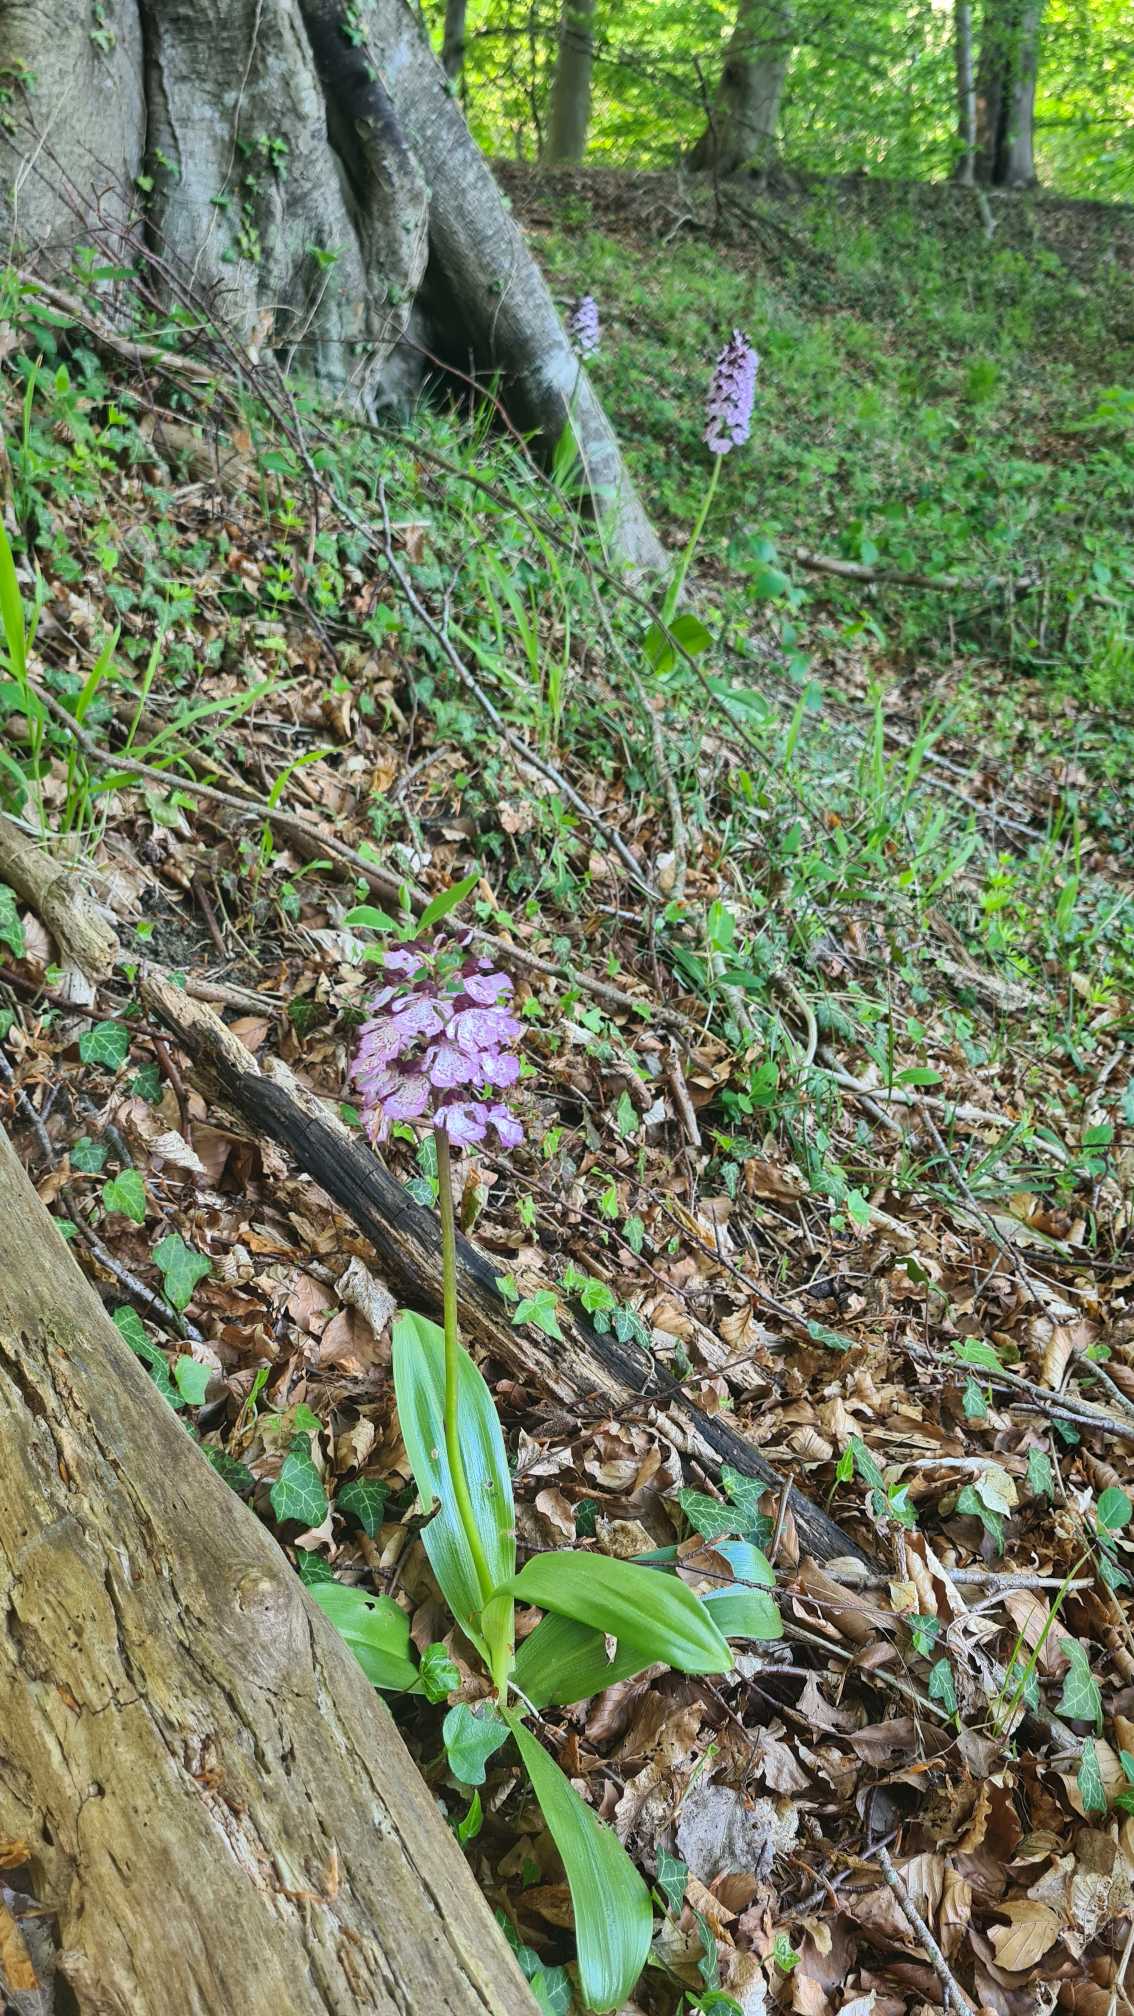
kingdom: Plantae
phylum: Tracheophyta
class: Liliopsida
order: Asparagales
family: Orchidaceae
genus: Orchis
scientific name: Orchis purpurea
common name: Stor gøgeurt
